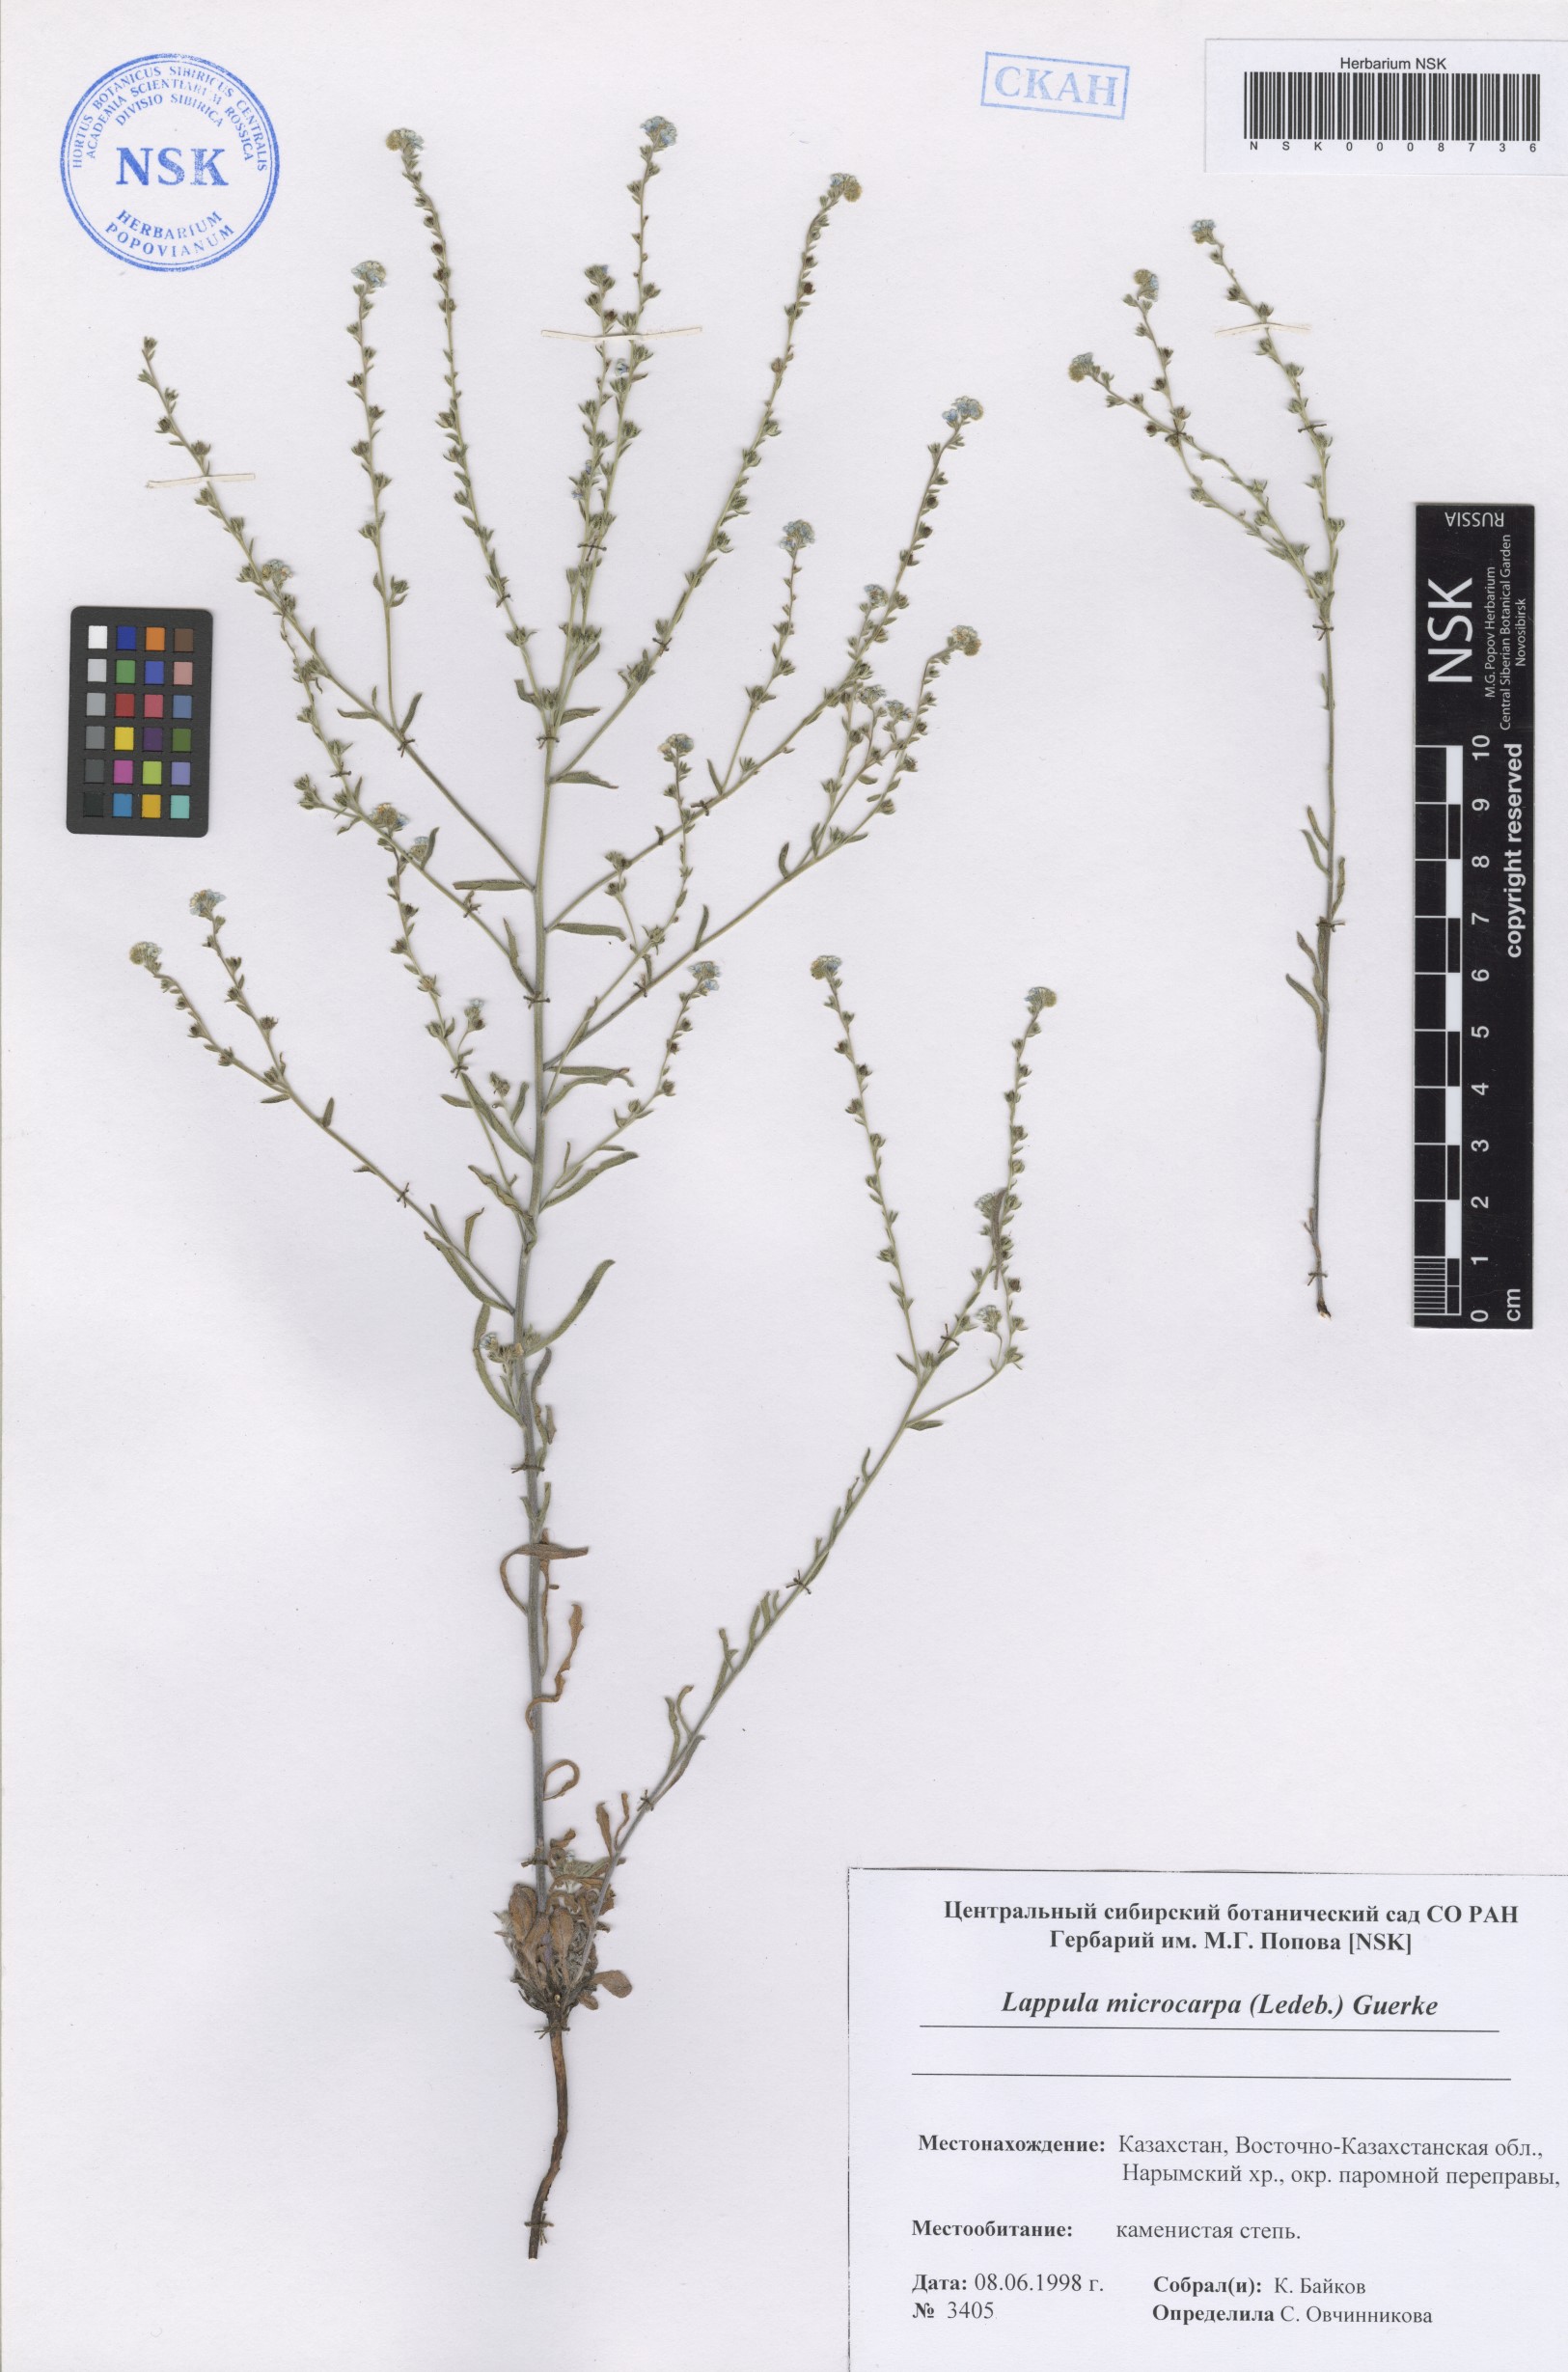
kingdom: Plantae
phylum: Tracheophyta
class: Magnoliopsida
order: Boraginales
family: Boraginaceae
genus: Lappula
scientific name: Lappula microcarpa
